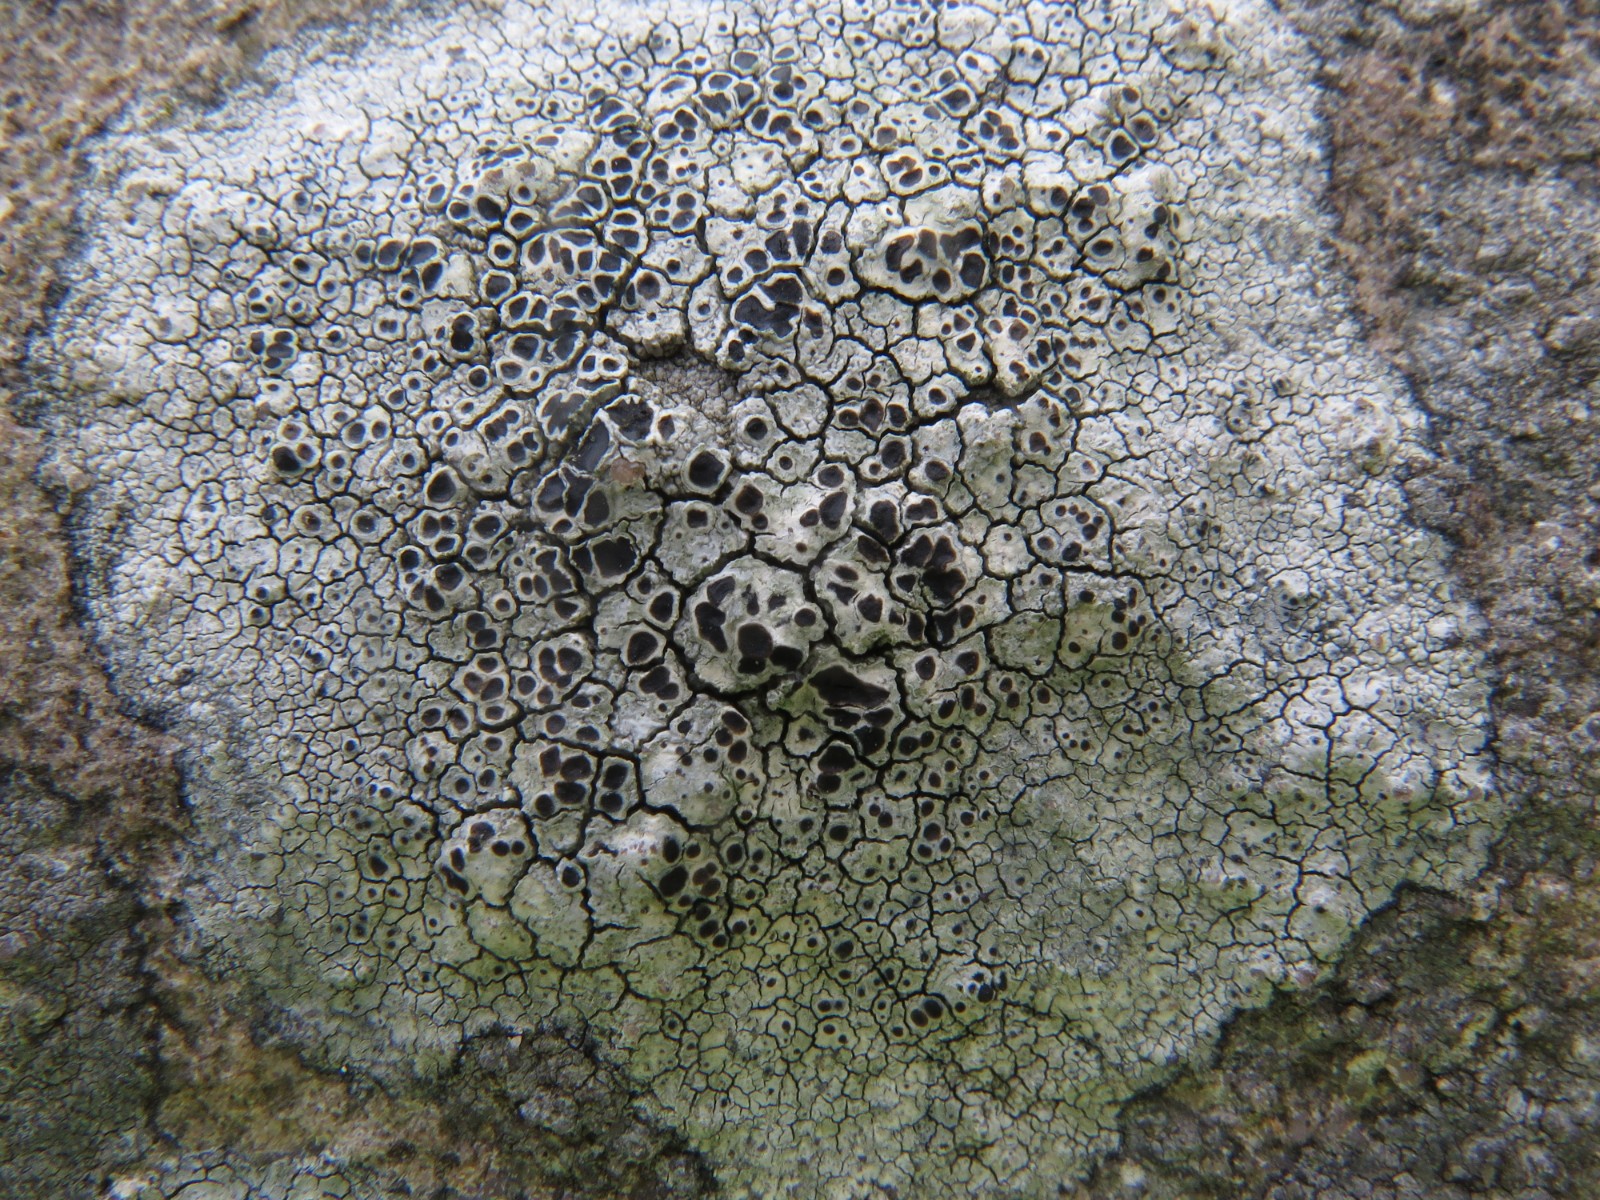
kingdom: Fungi
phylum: Ascomycota
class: Lecanoromycetes
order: Lecanorales
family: Tephromelataceae
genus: Tephromela
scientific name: Tephromela atra
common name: sortfrugtet kantskivelav
